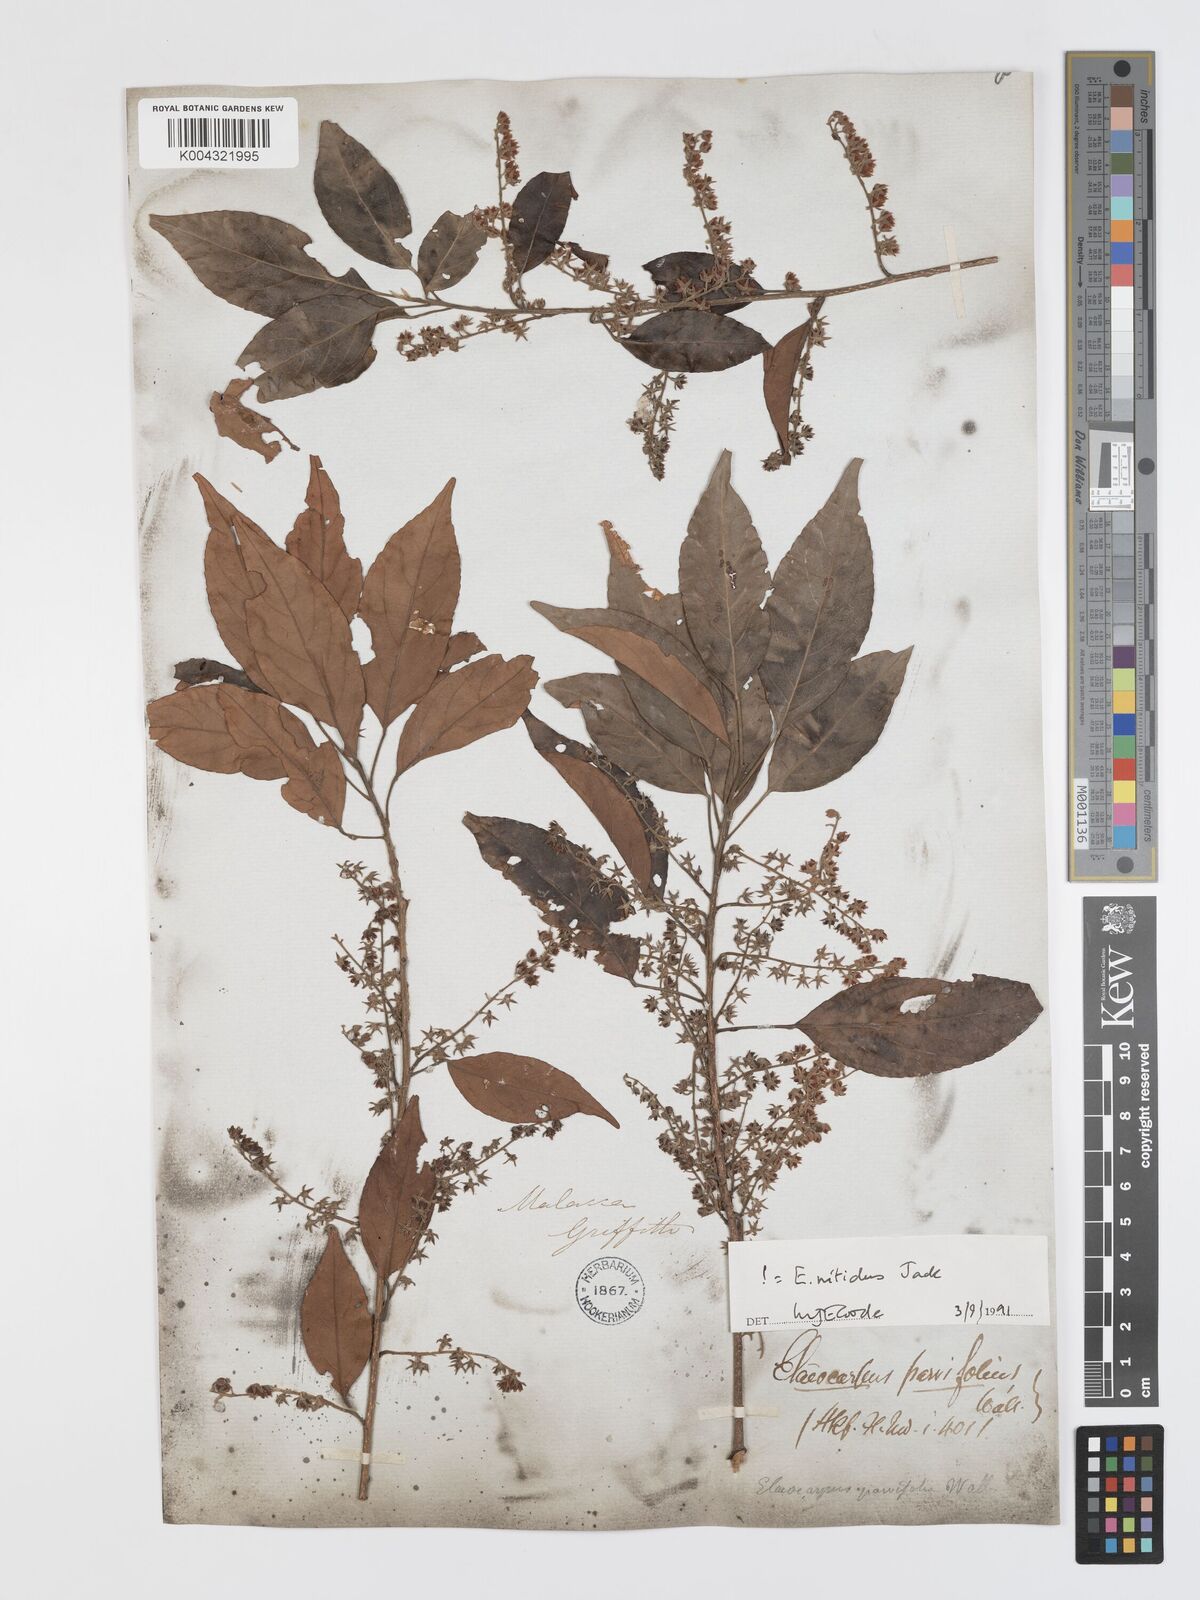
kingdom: Plantae
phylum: Tracheophyta
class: Magnoliopsida
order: Oxalidales
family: Elaeocarpaceae
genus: Elaeocarpus
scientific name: Elaeocarpus nitidus
